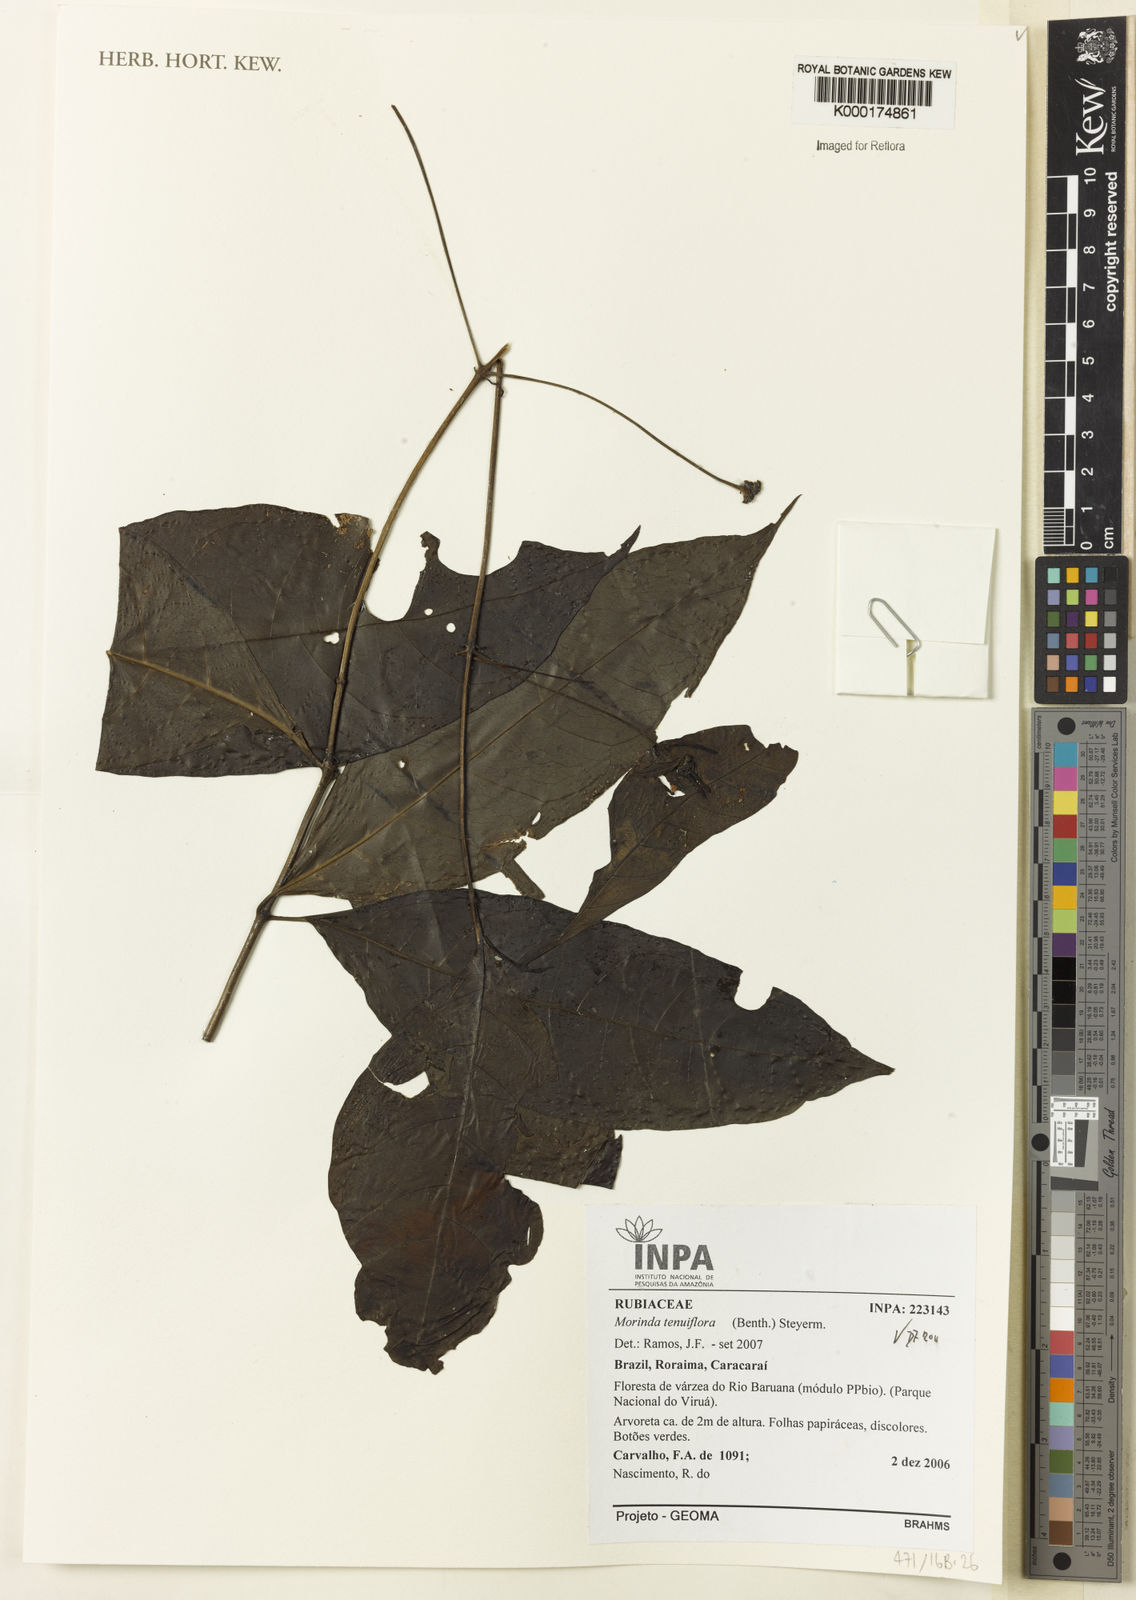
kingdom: Plantae
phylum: Tracheophyta
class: Magnoliopsida
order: Gentianales
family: Rubiaceae
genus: Morinda
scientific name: Morinda
